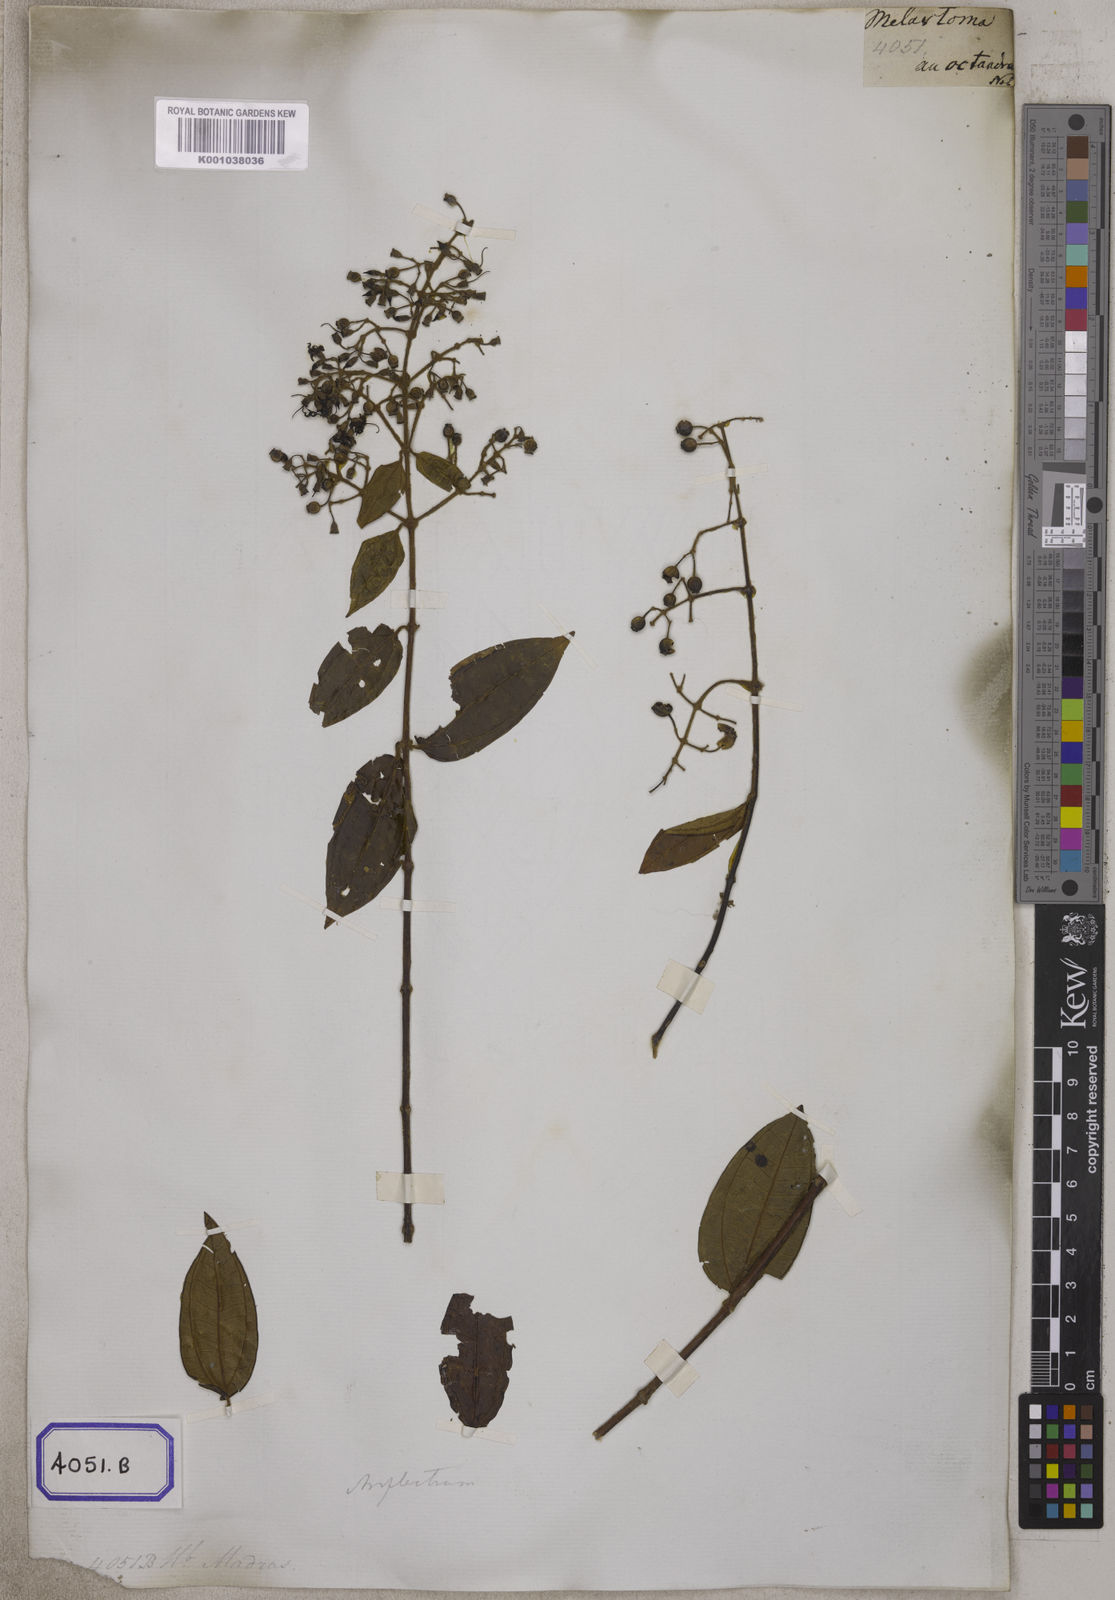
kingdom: Plantae
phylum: Tracheophyta
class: Magnoliopsida
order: Myrtales
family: Melastomataceae
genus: Melastoma
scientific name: Melastoma
